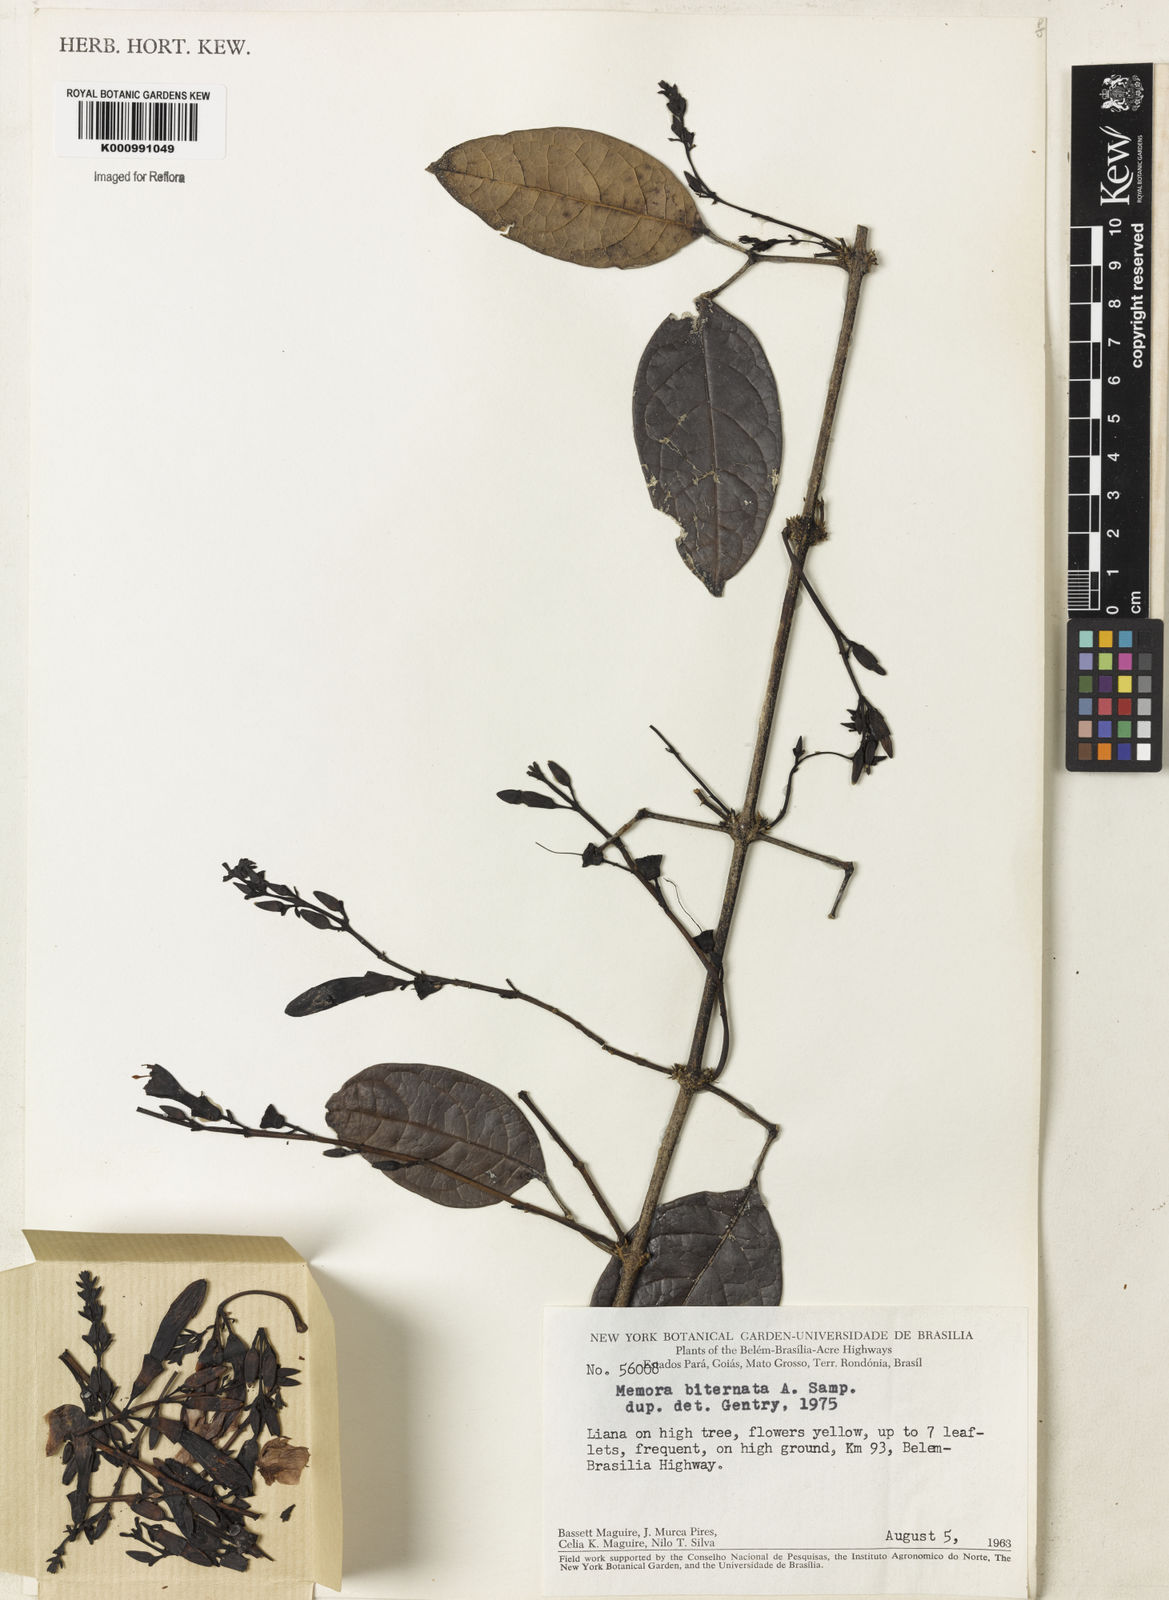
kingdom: Plantae
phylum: Tracheophyta
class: Magnoliopsida
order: Lamiales
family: Bignoniaceae
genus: Adenocalymma
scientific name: Adenocalymma biternatum
